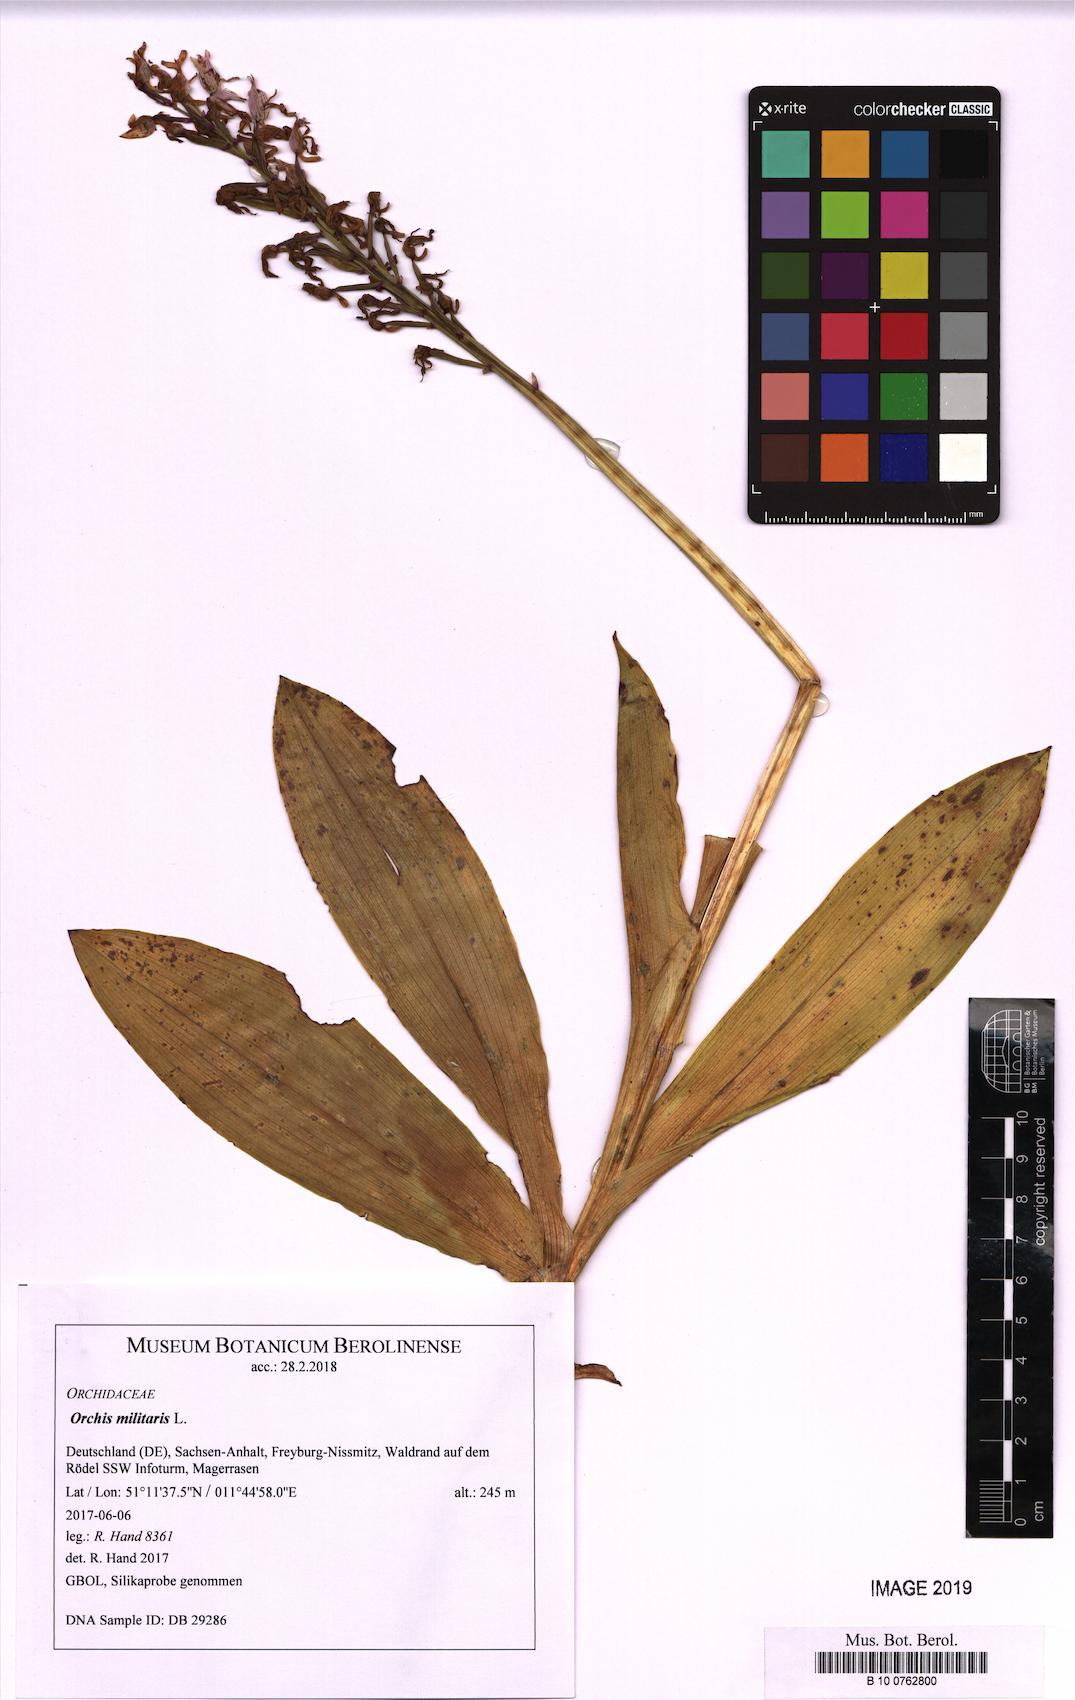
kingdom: Plantae
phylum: Tracheophyta
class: Liliopsida
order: Asparagales
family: Orchidaceae
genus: Orchis
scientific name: Orchis militaris
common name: Military orchid
